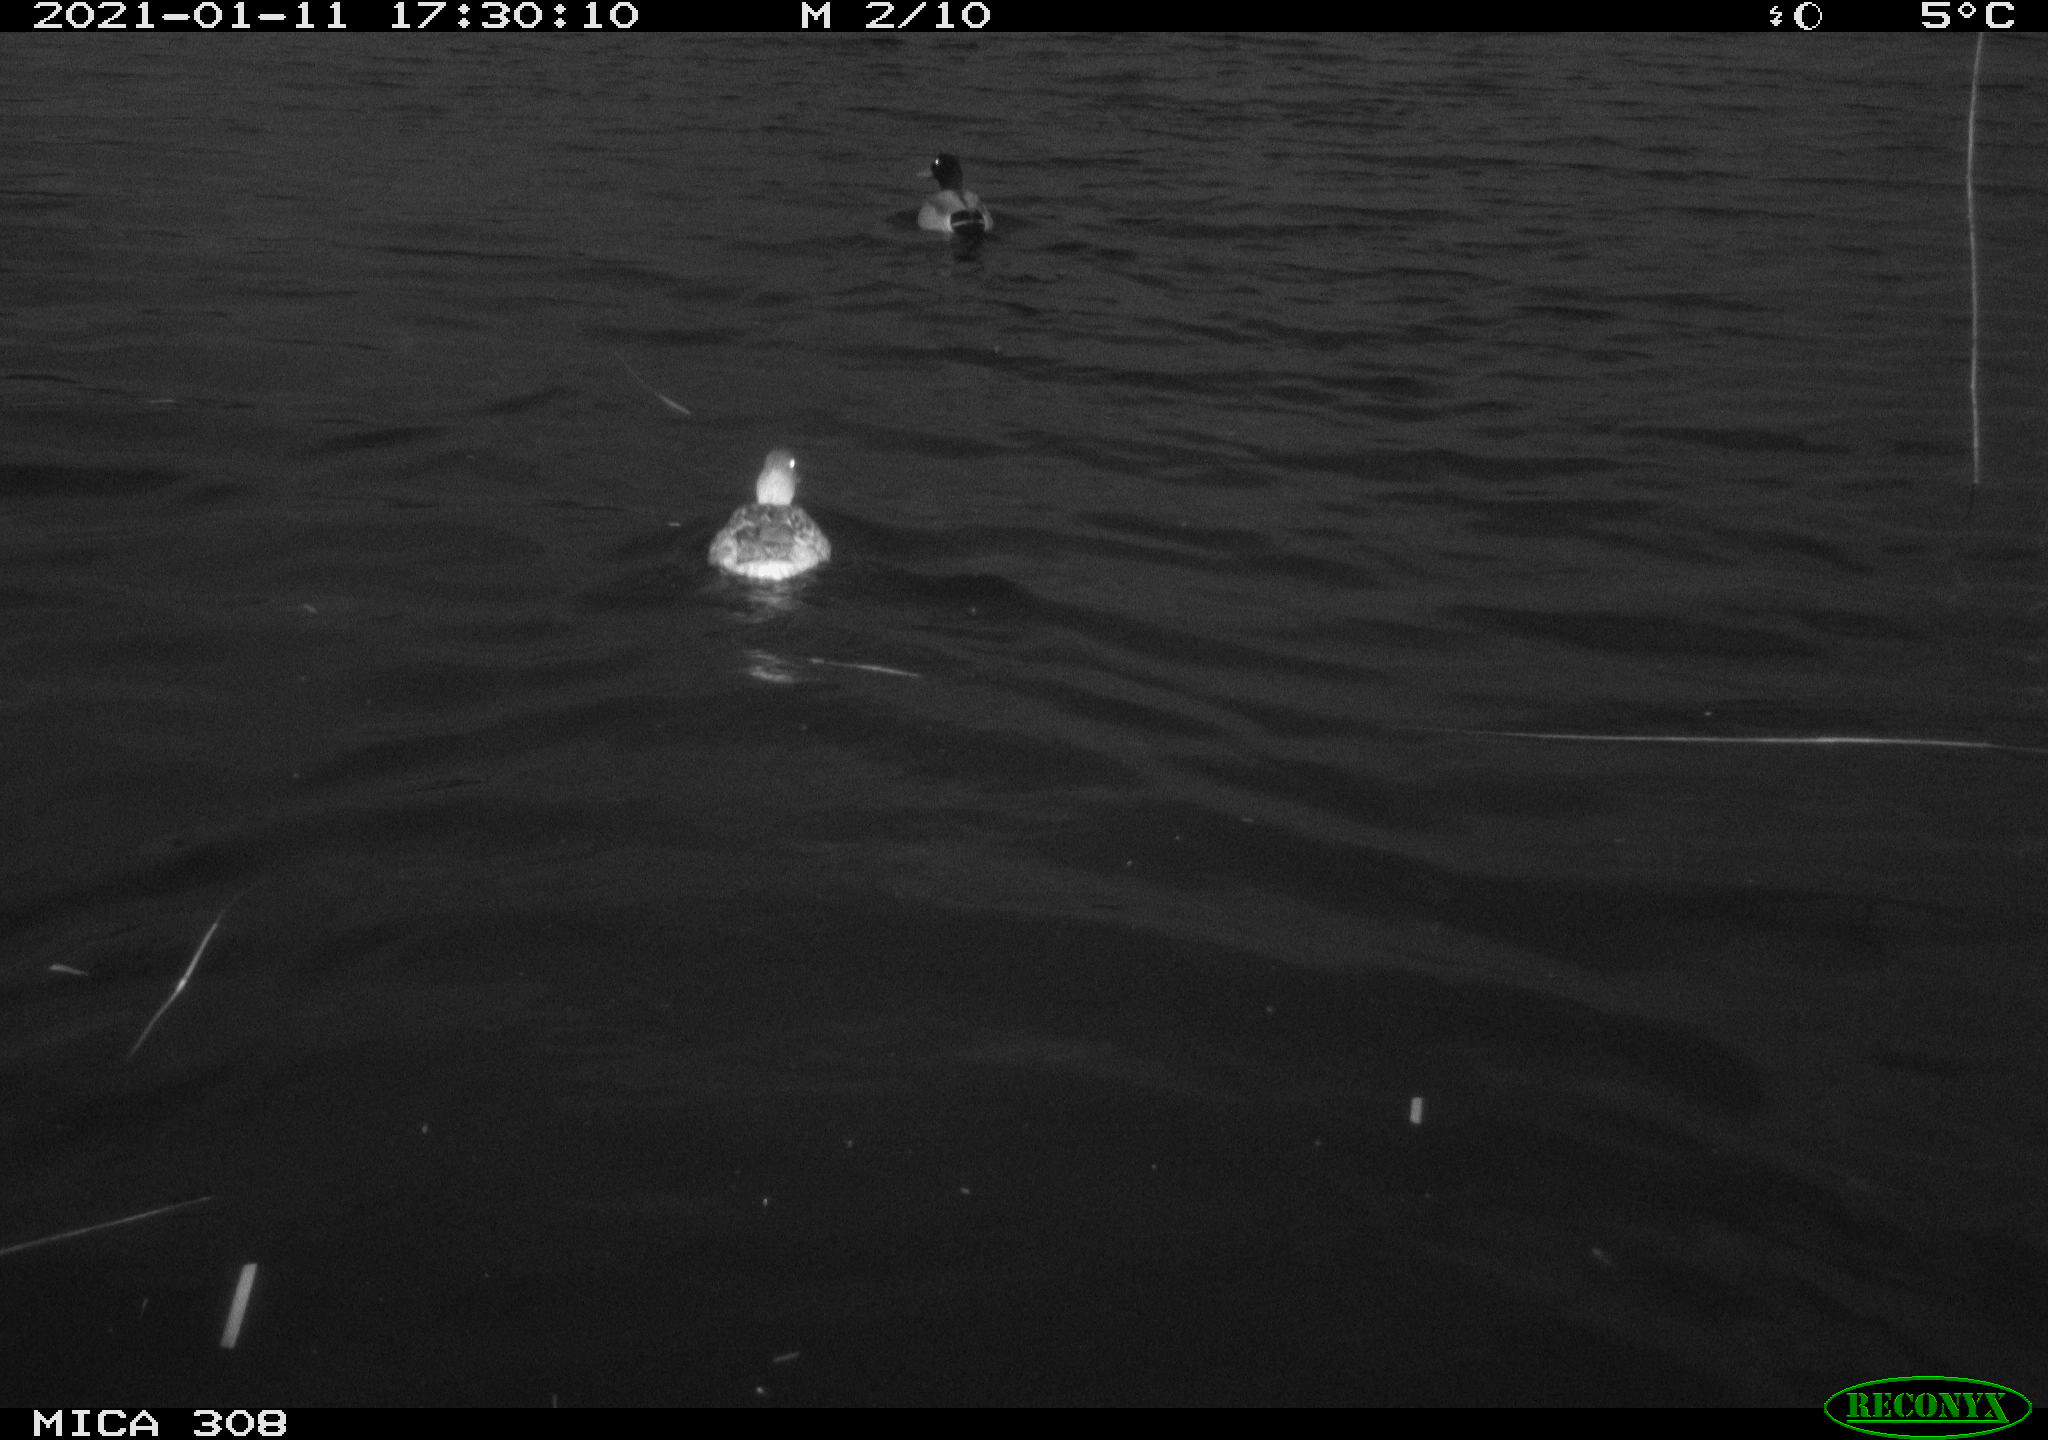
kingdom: Animalia
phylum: Chordata
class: Aves
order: Anseriformes
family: Anatidae
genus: Anas
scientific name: Anas platyrhynchos
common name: Mallard
